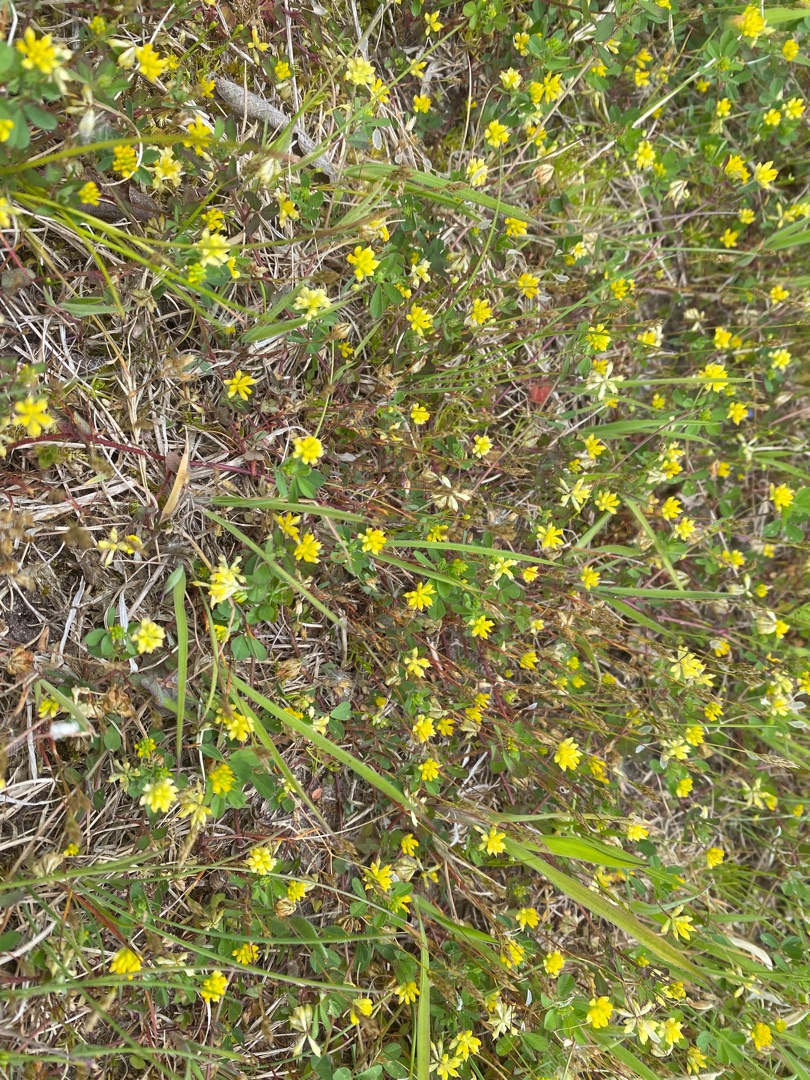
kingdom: Plantae
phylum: Tracheophyta
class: Magnoliopsida
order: Fabales
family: Fabaceae
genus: Trifolium
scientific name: Trifolium dubium
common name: Fin kløver
